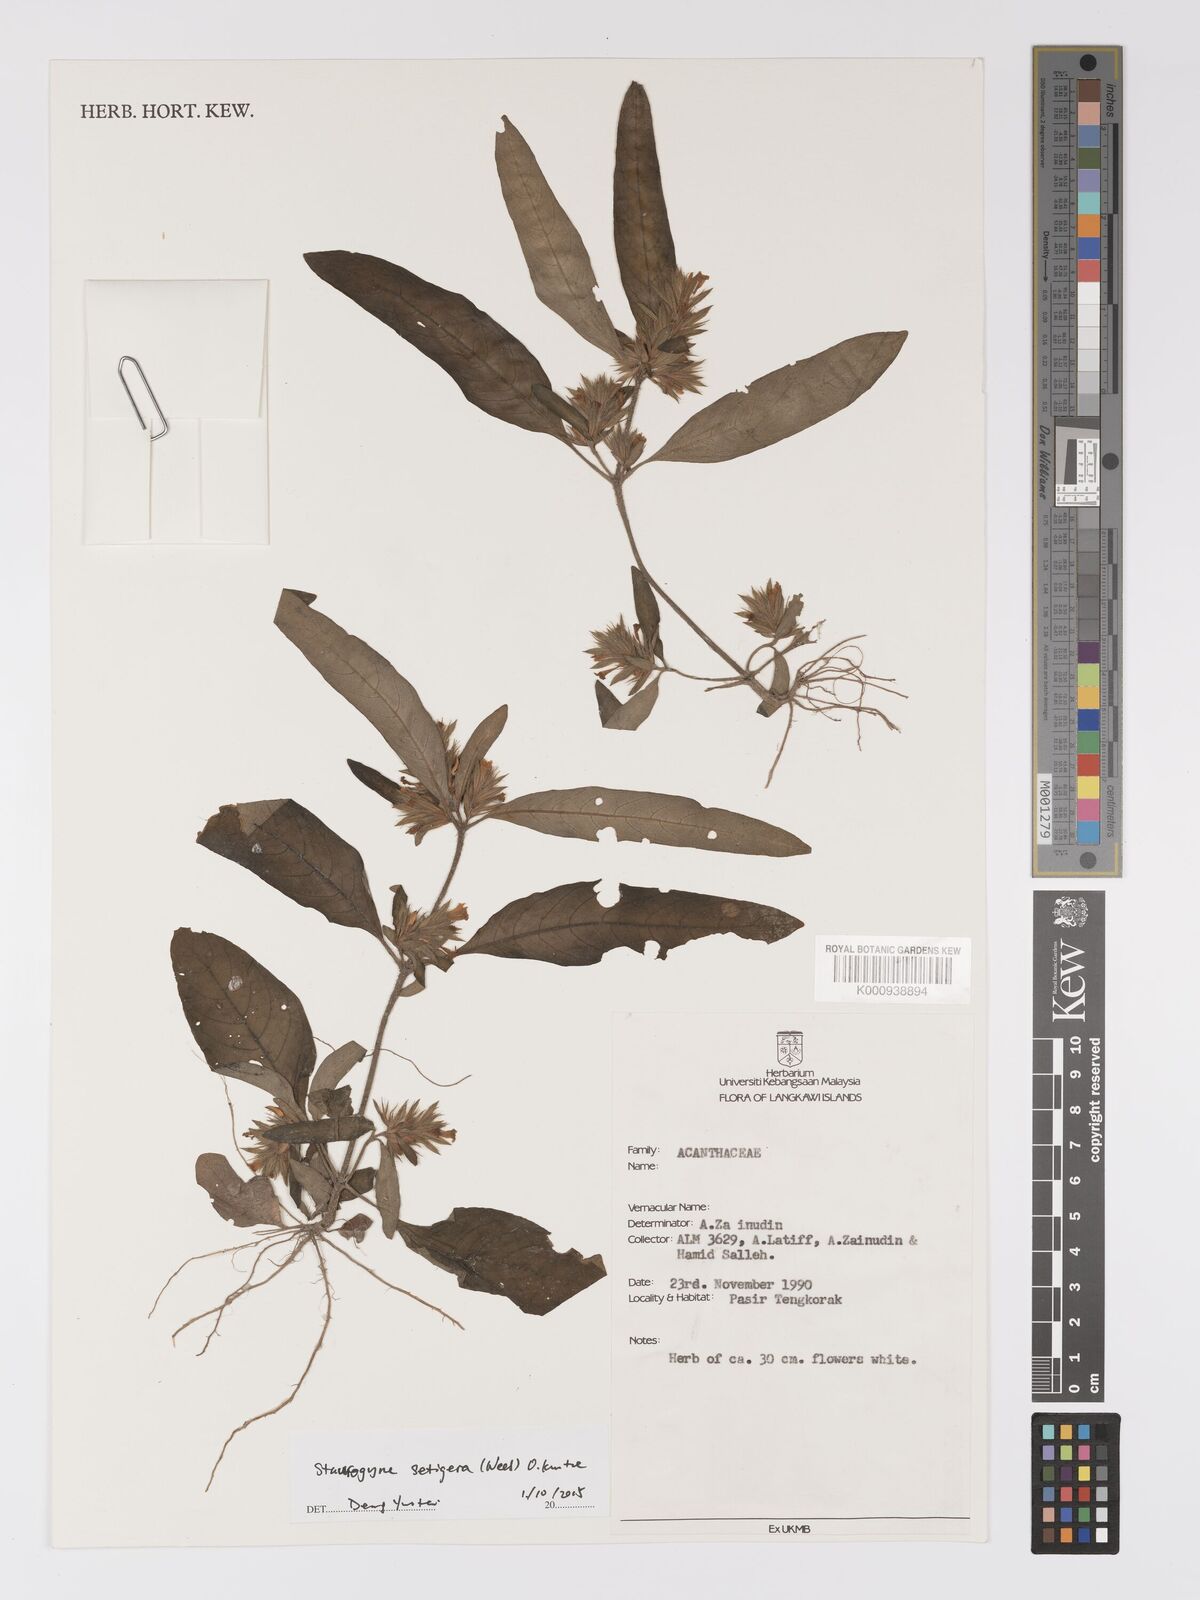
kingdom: Plantae
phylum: Tracheophyta
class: Magnoliopsida
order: Lamiales
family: Acanthaceae
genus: Staurogyne
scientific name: Staurogyne setigera
